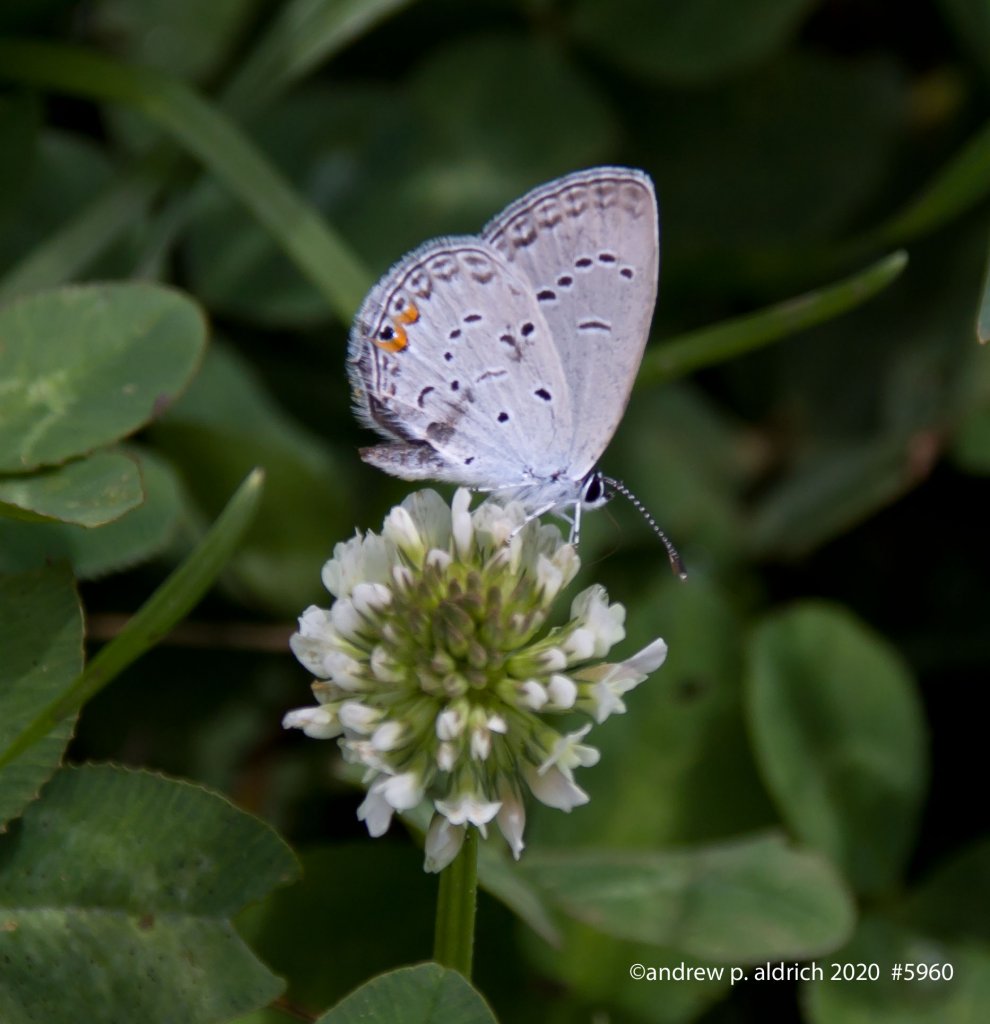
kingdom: Animalia
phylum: Arthropoda
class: Insecta
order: Lepidoptera
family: Lycaenidae
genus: Elkalyce
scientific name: Elkalyce comyntas
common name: Eastern Tailed-Blue
